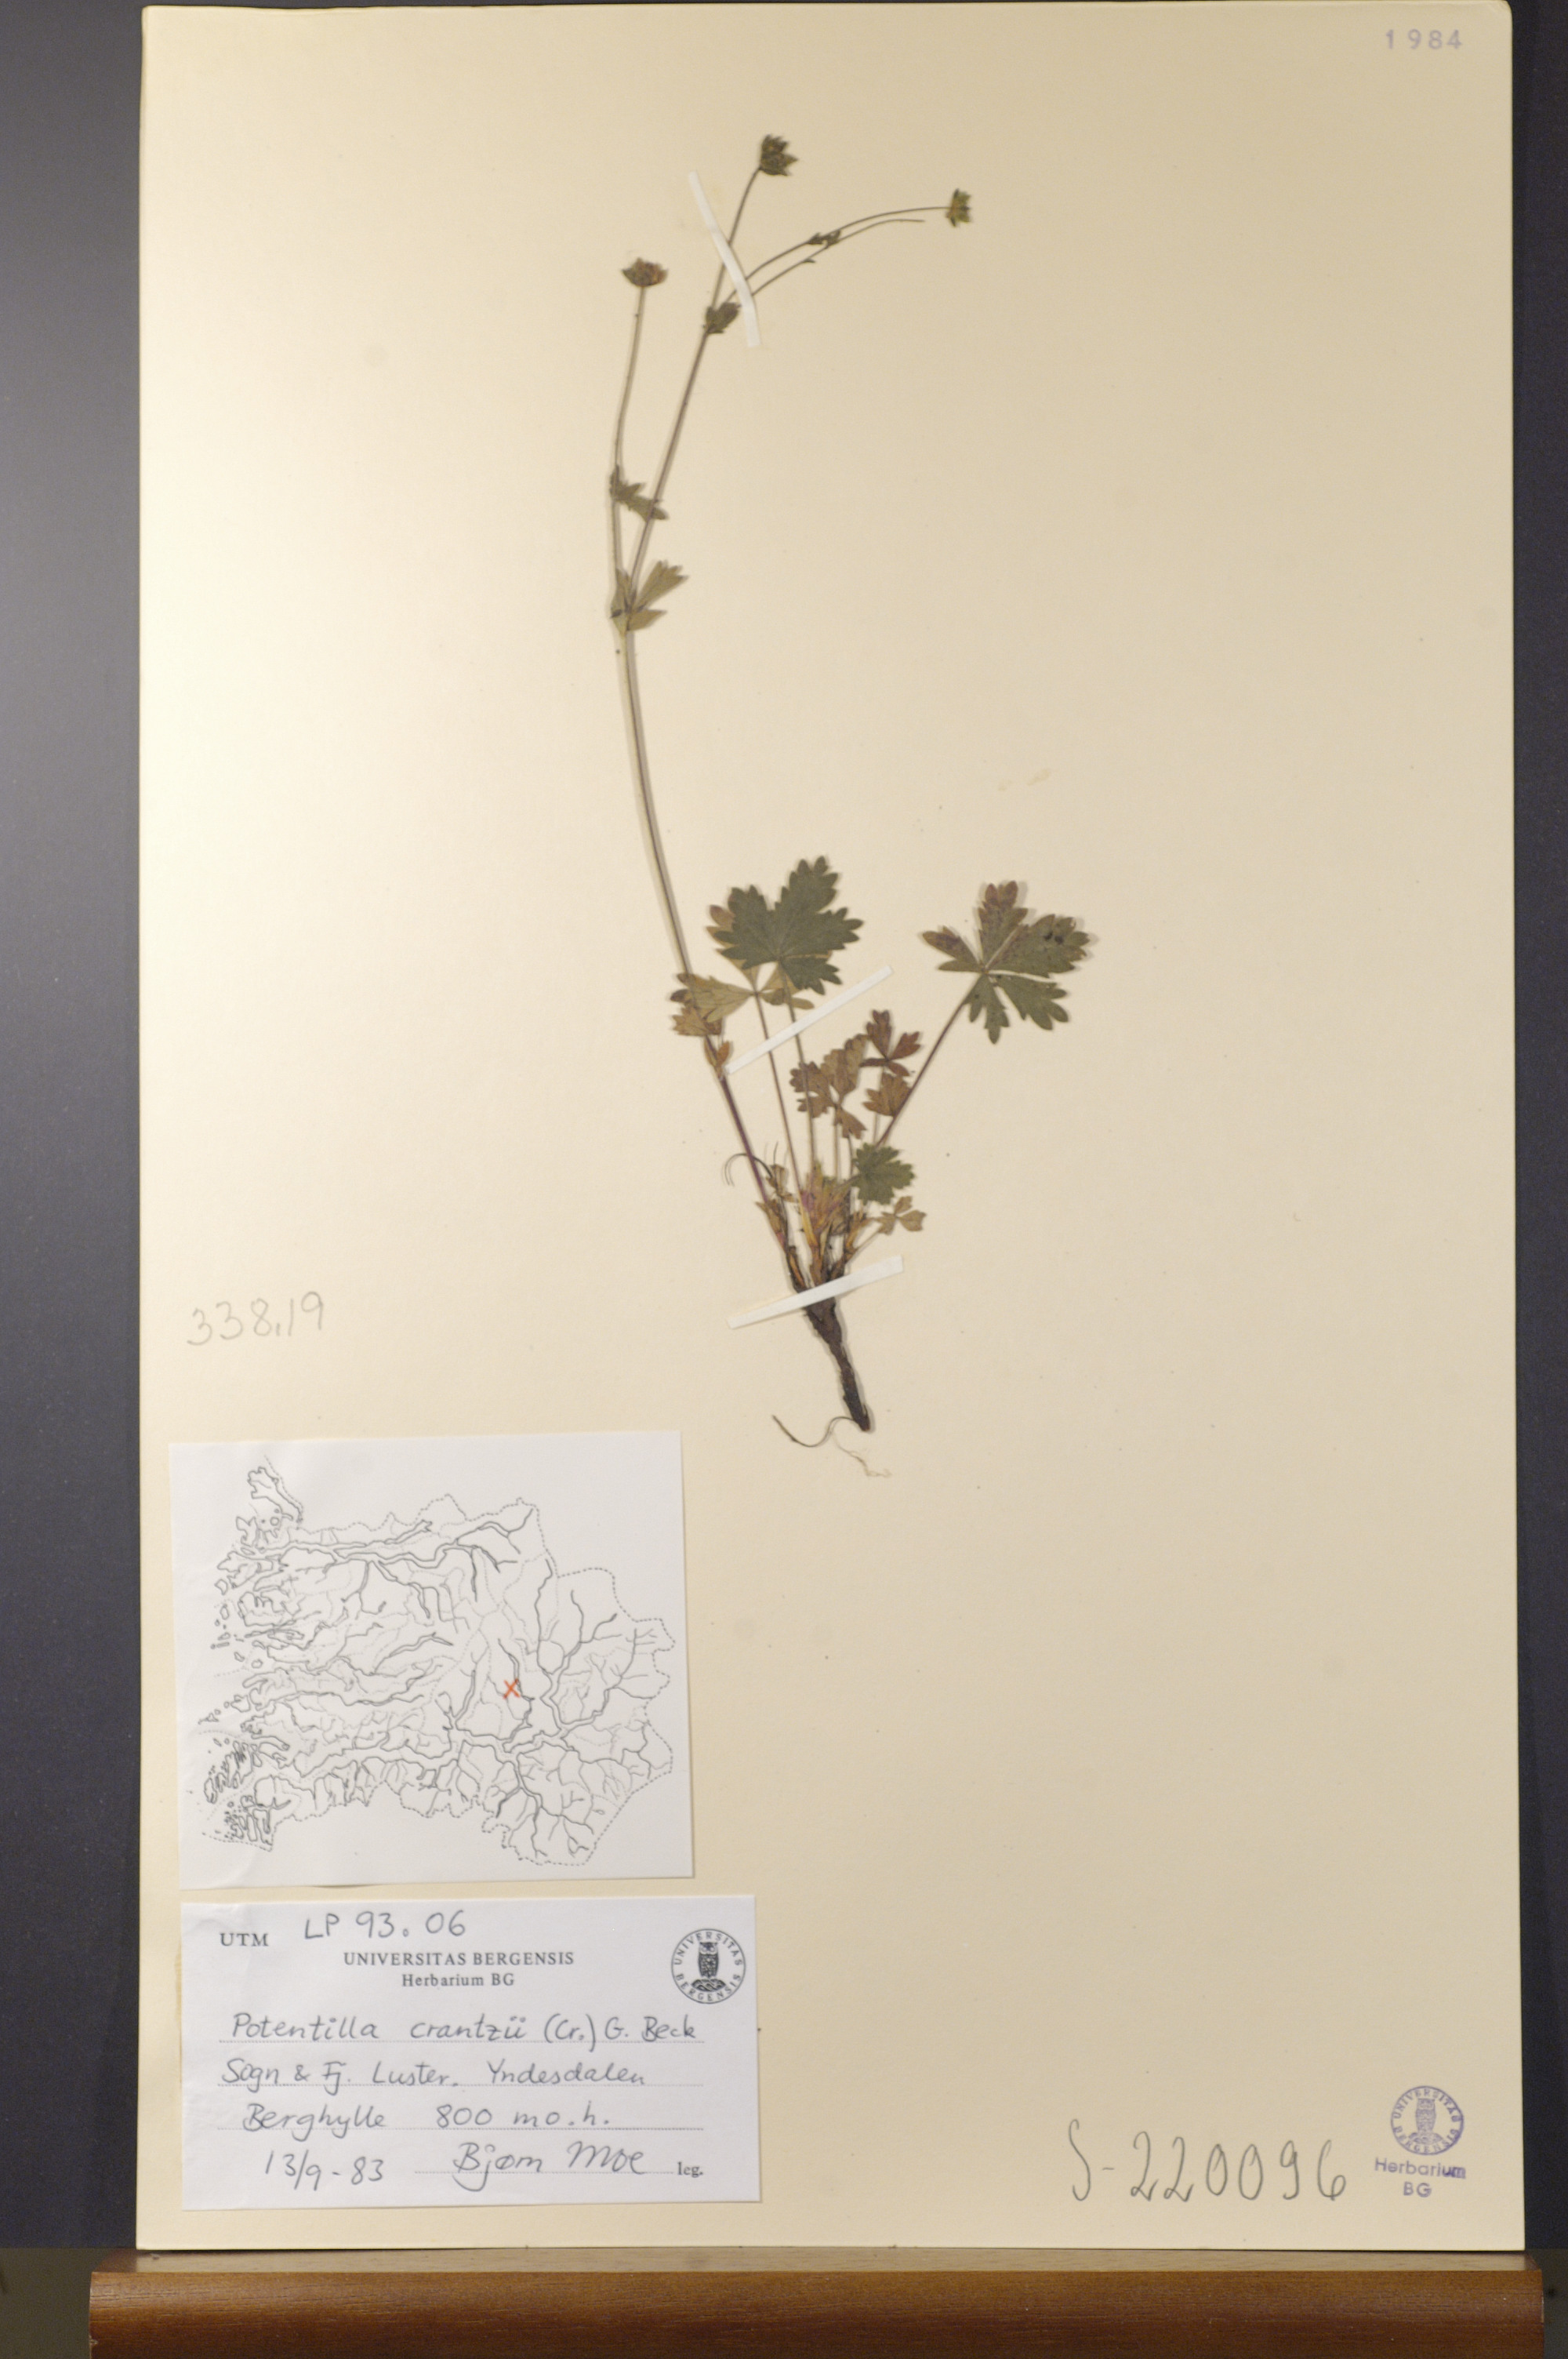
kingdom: Plantae
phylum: Tracheophyta
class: Magnoliopsida
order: Rosales
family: Rosaceae
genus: Potentilla
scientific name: Potentilla crantzii
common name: Alpine cinquefoil
